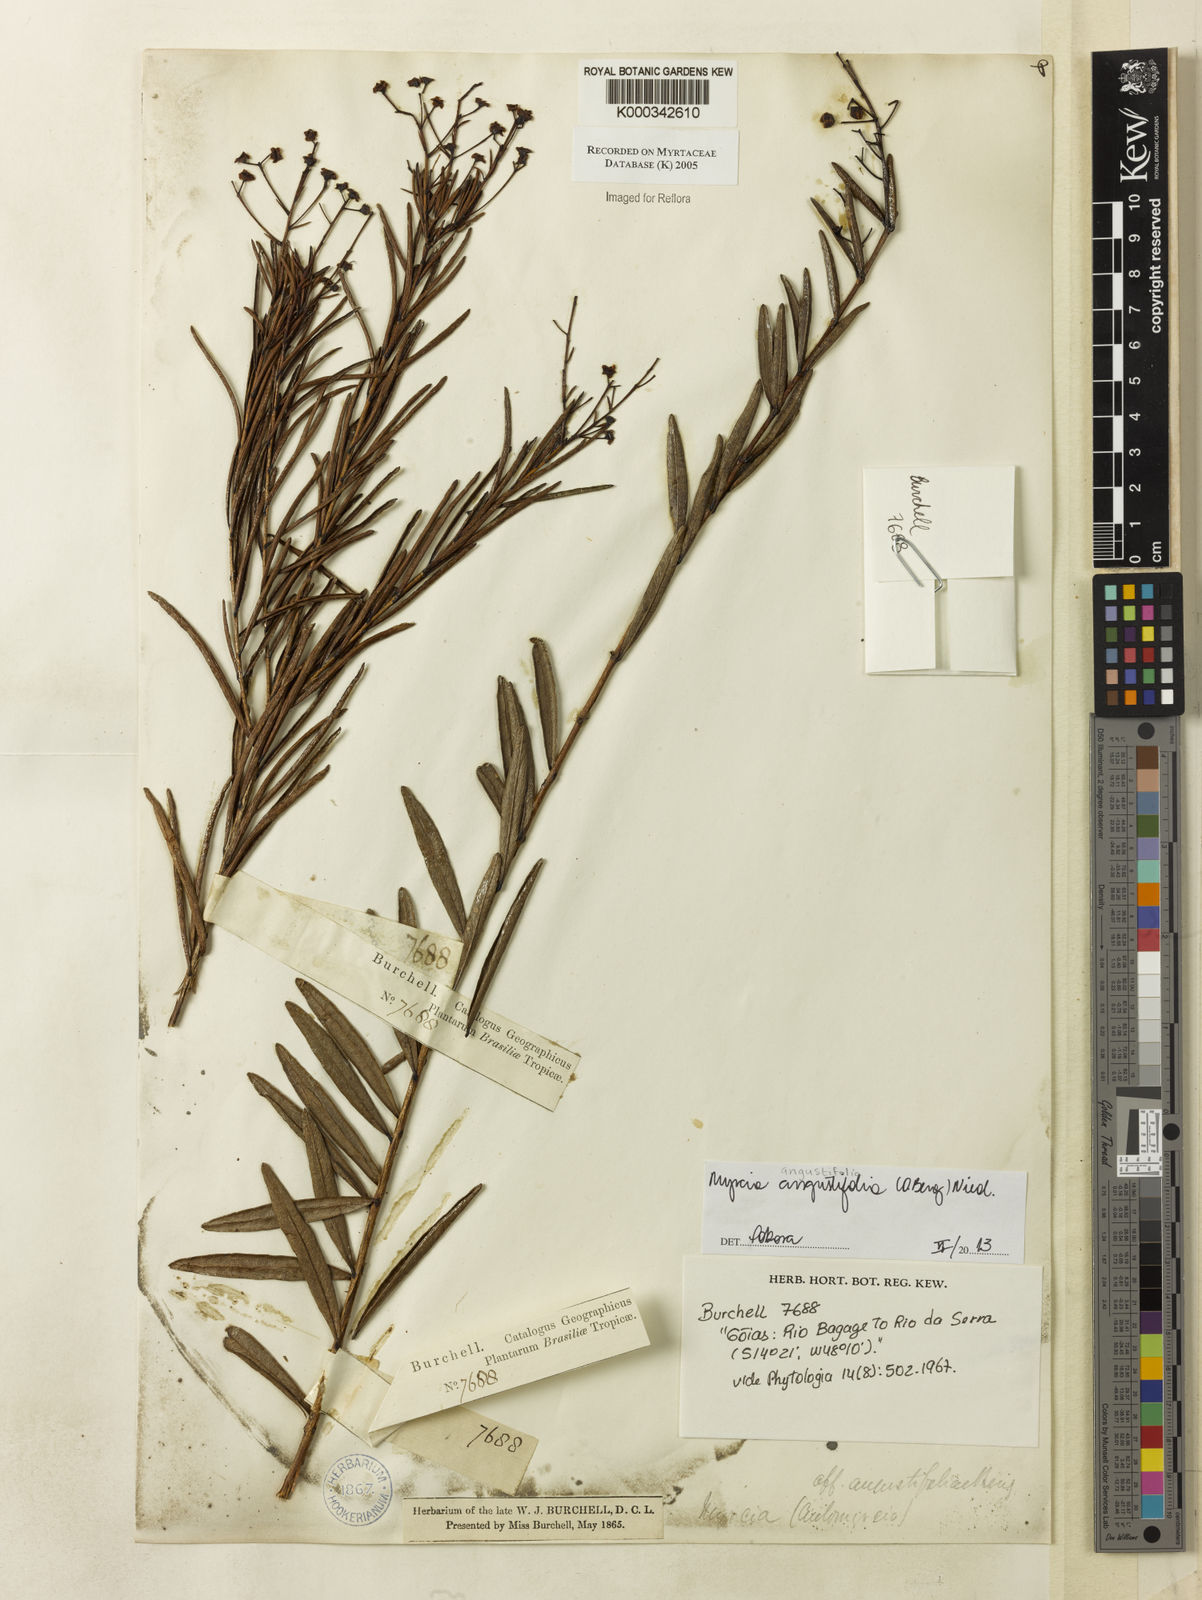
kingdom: Plantae
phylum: Tracheophyta
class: Magnoliopsida
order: Myrtales
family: Myrtaceae
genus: Myrcia
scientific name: Myrcia angustifolia
